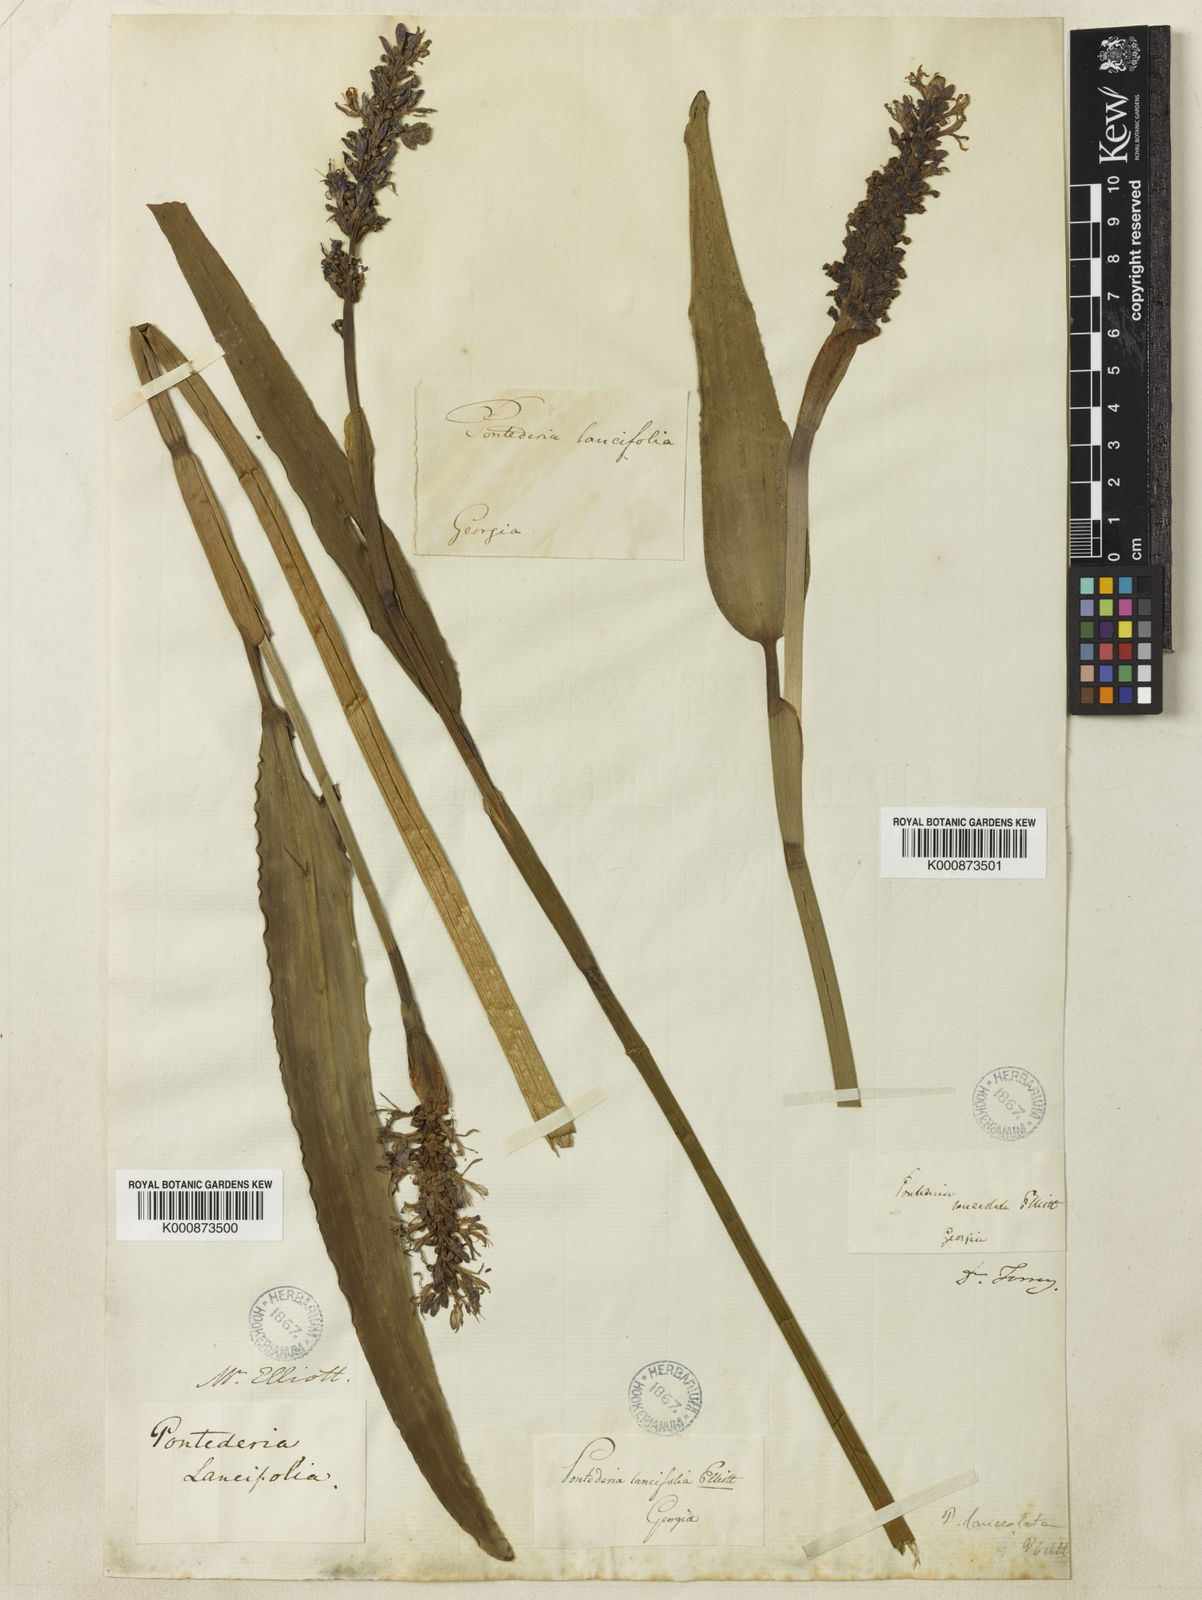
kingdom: Plantae
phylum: Tracheophyta
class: Liliopsida
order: Commelinales
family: Pontederiaceae
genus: Pontederia
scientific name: Pontederia
